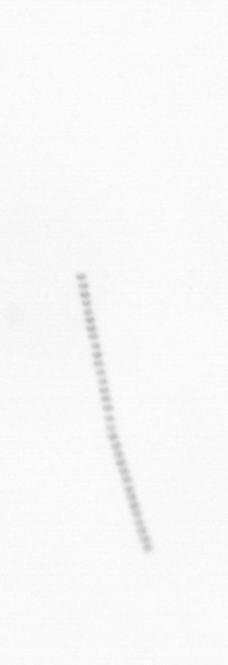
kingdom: Chromista
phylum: Ochrophyta
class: Bacillariophyceae
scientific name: Bacillariophyceae
